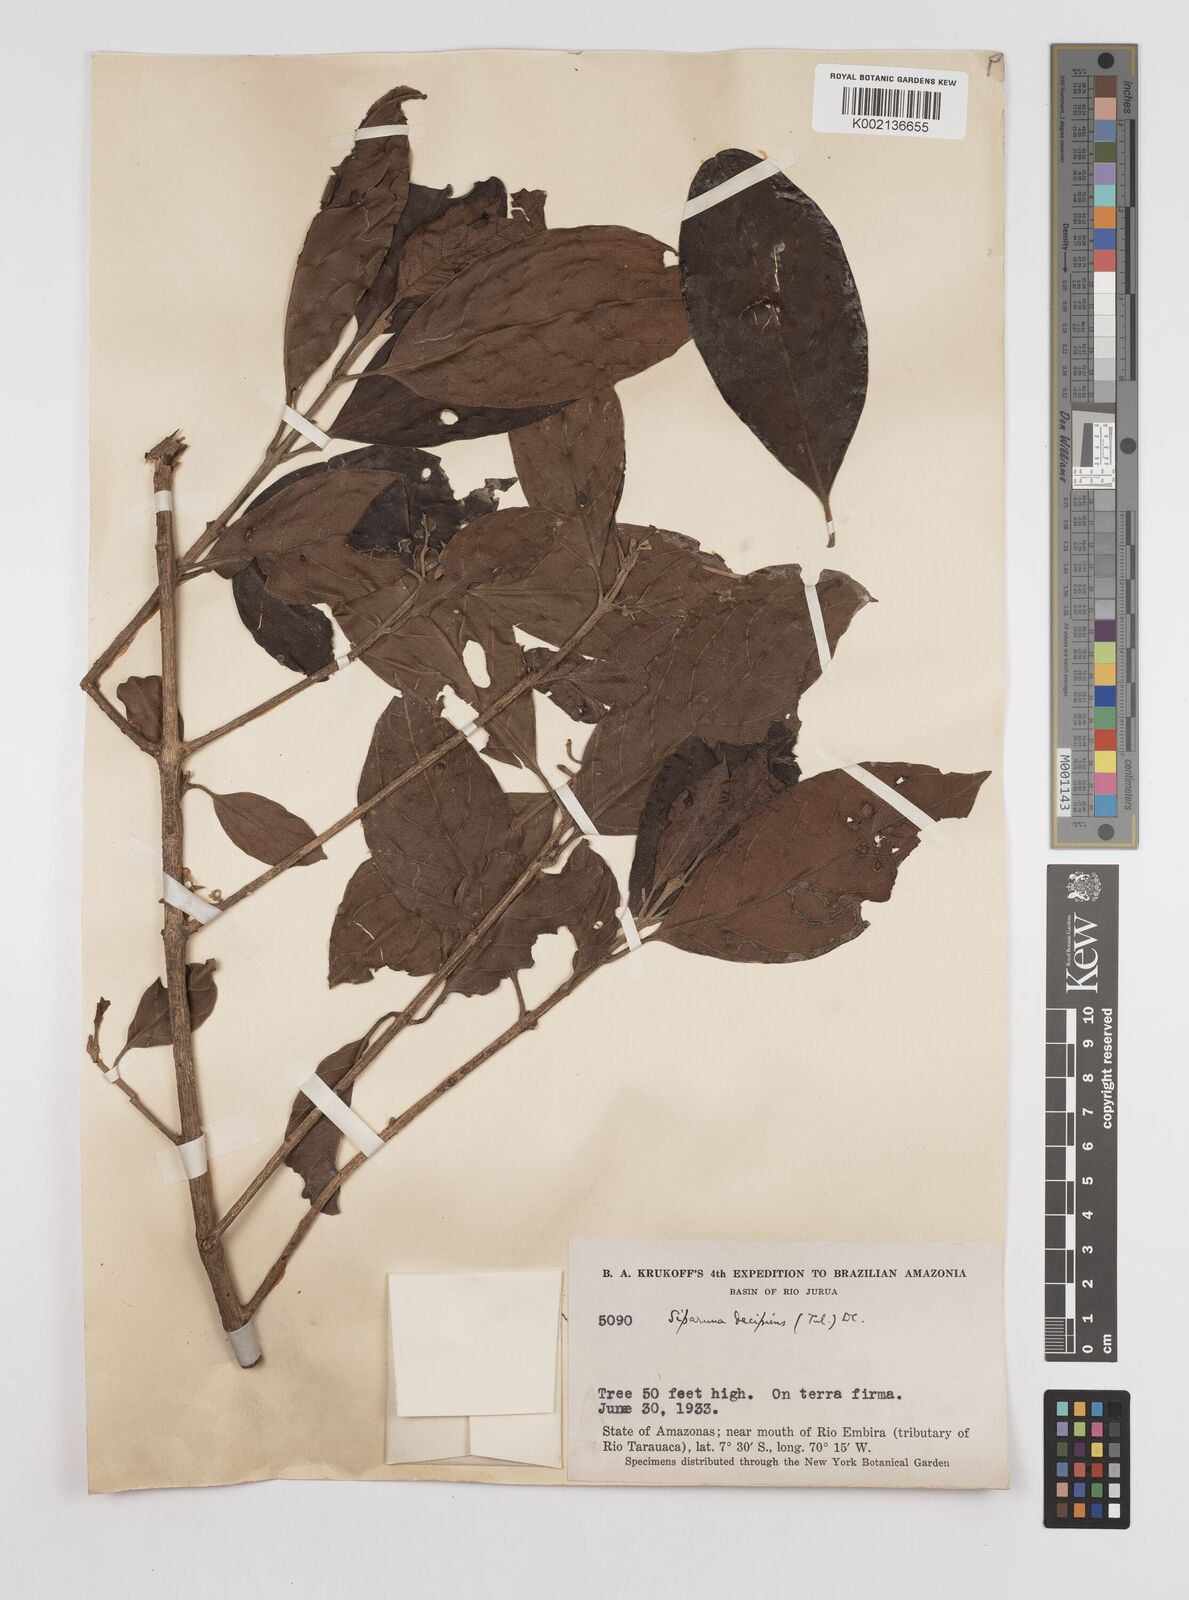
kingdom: Plantae
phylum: Tracheophyta
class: Magnoliopsida
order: Laurales
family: Siparunaceae
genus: Siparuna
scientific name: Siparuna decipiens
